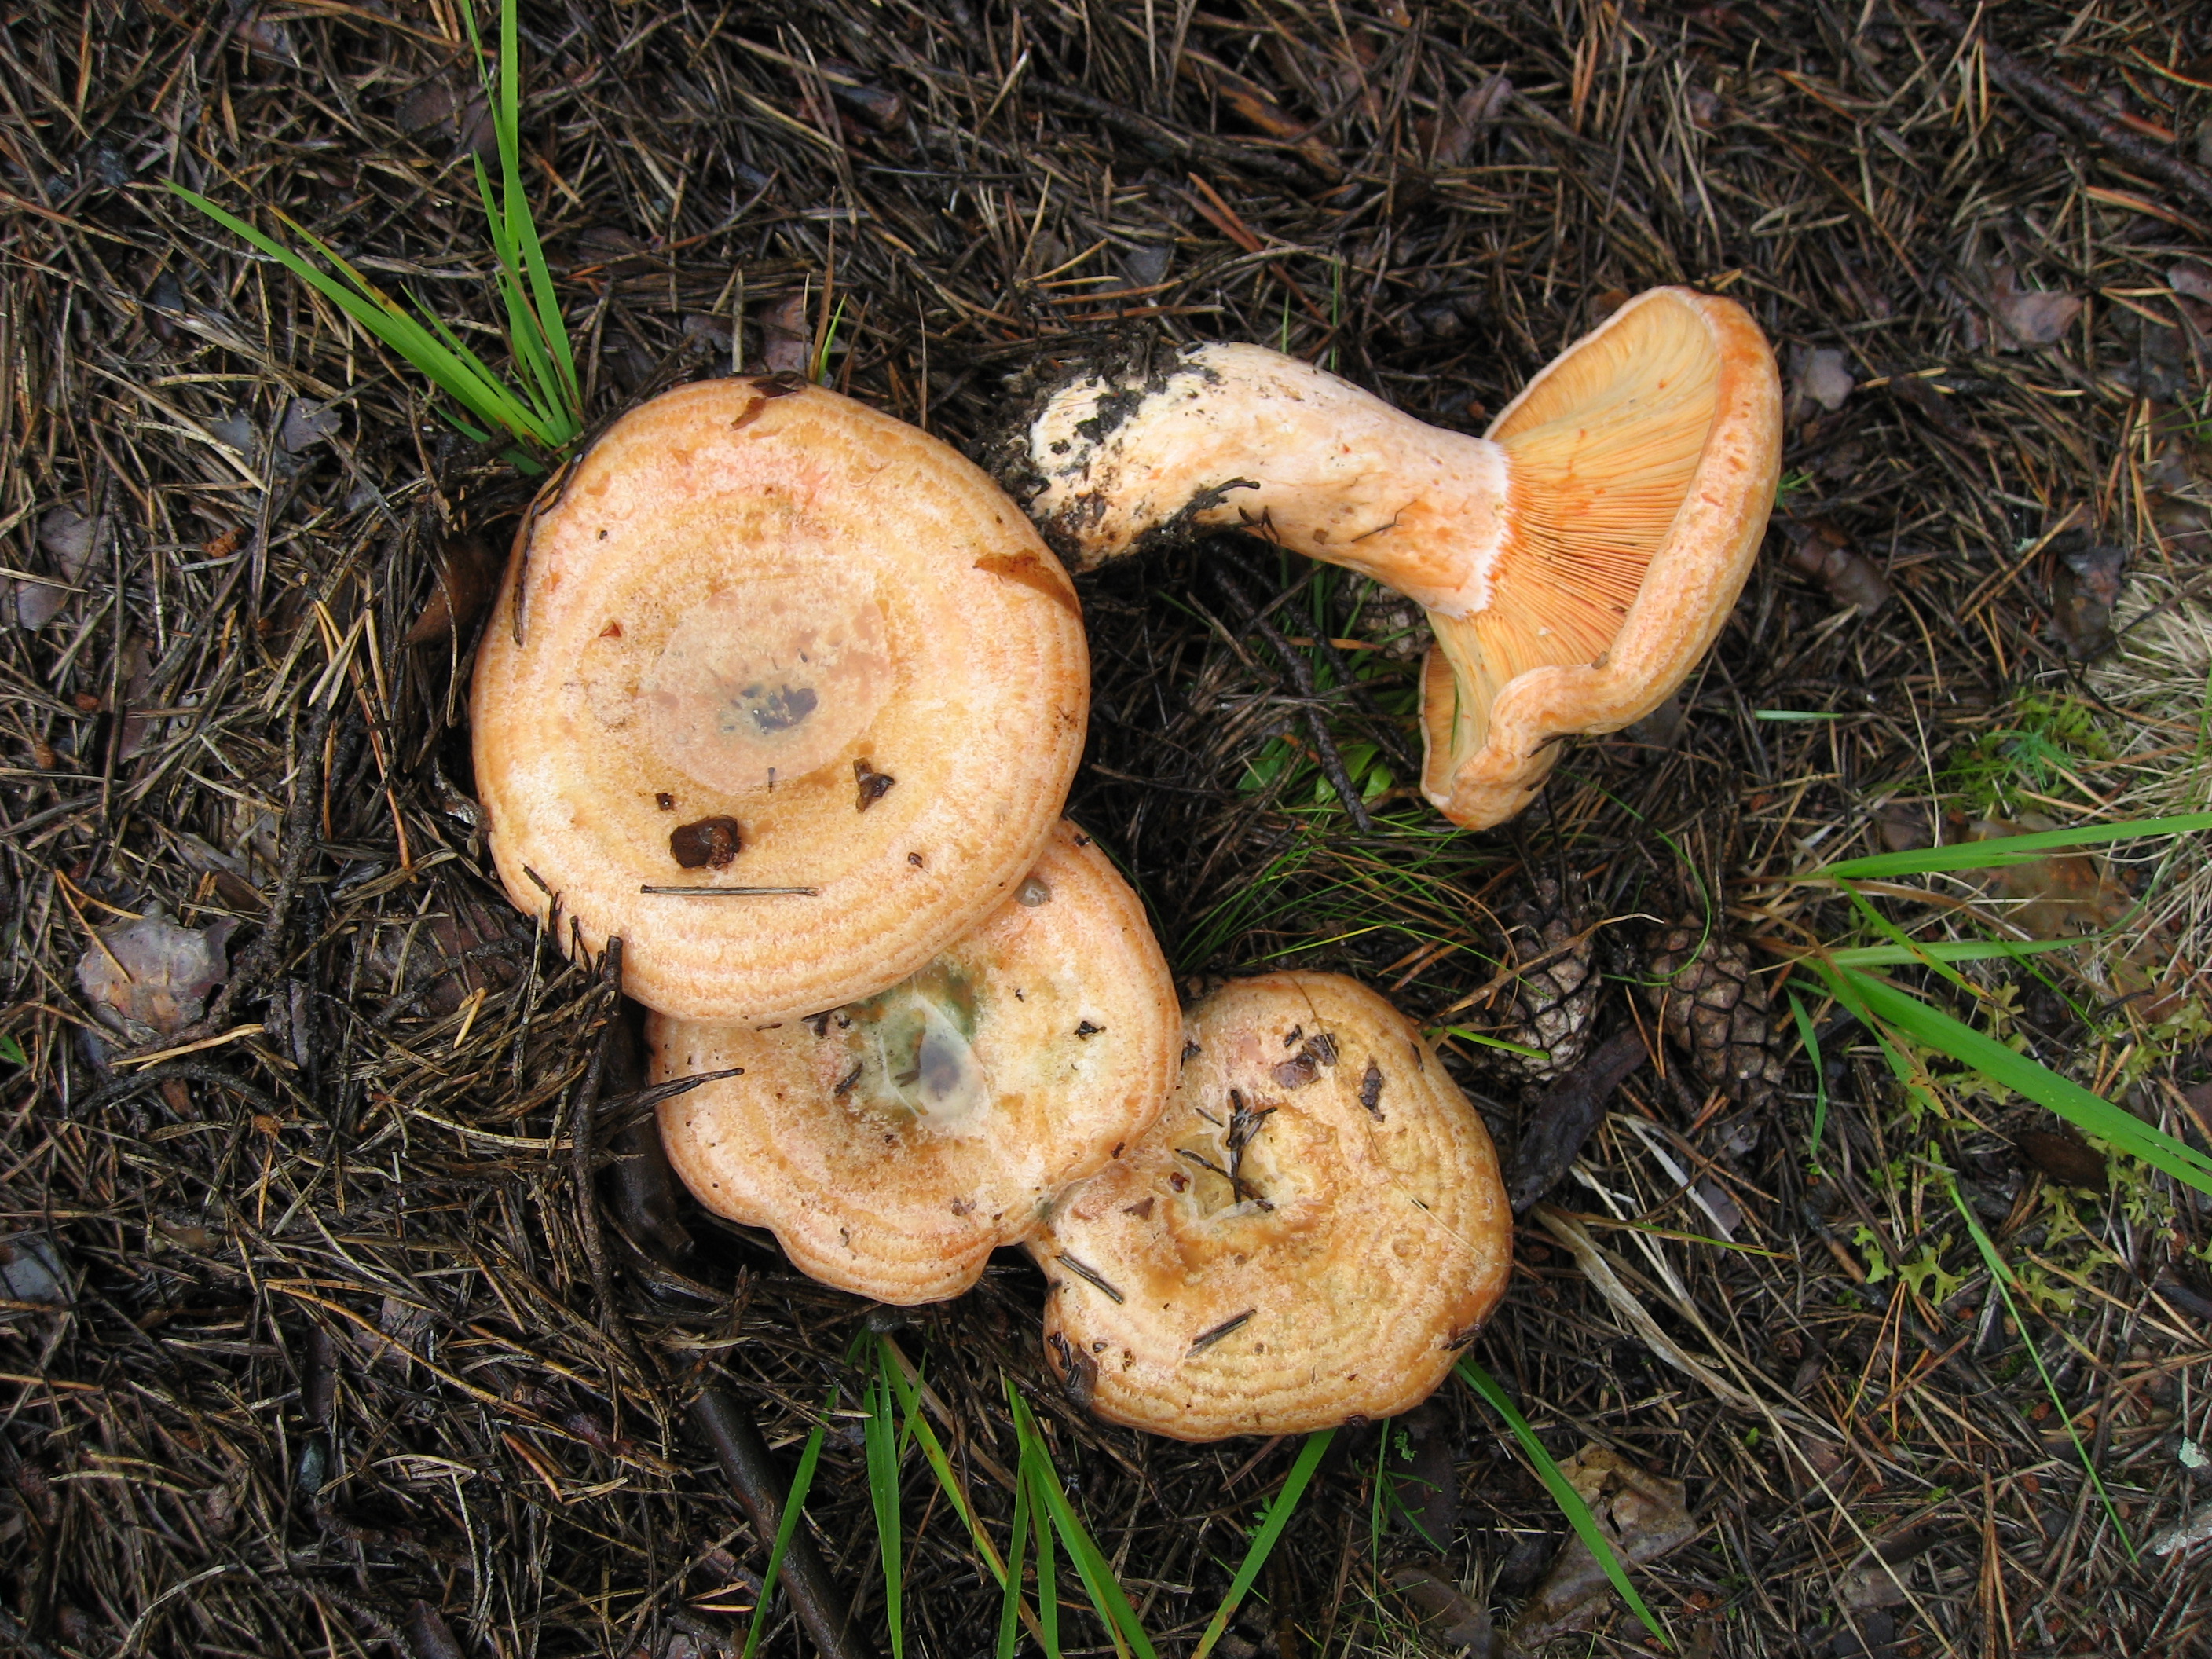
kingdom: Fungi
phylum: Basidiomycota
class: Agaricomycetes
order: Russulales
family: Russulaceae
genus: Lactarius
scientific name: Lactarius deliciosus
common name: Saffron milk-cap
